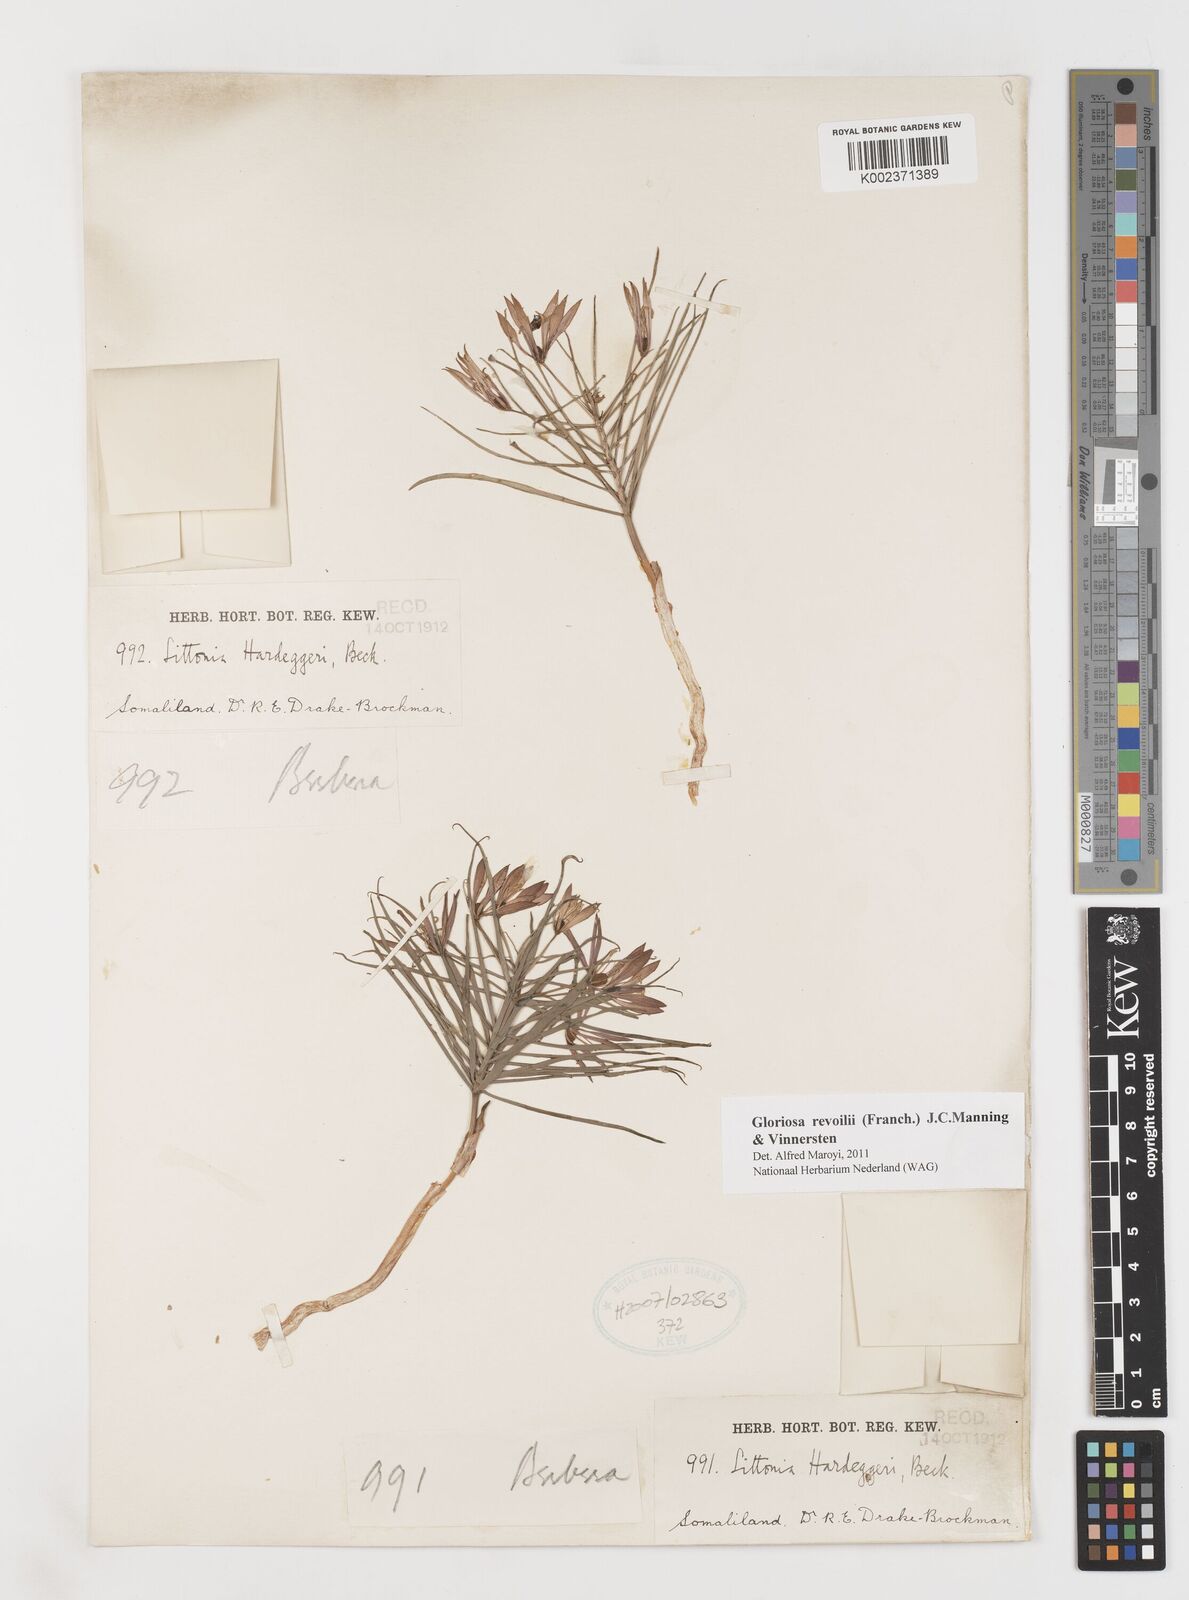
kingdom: Plantae
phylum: Tracheophyta
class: Liliopsida
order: Liliales
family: Colchicaceae
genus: Gloriosa
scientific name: Gloriosa revoilii
